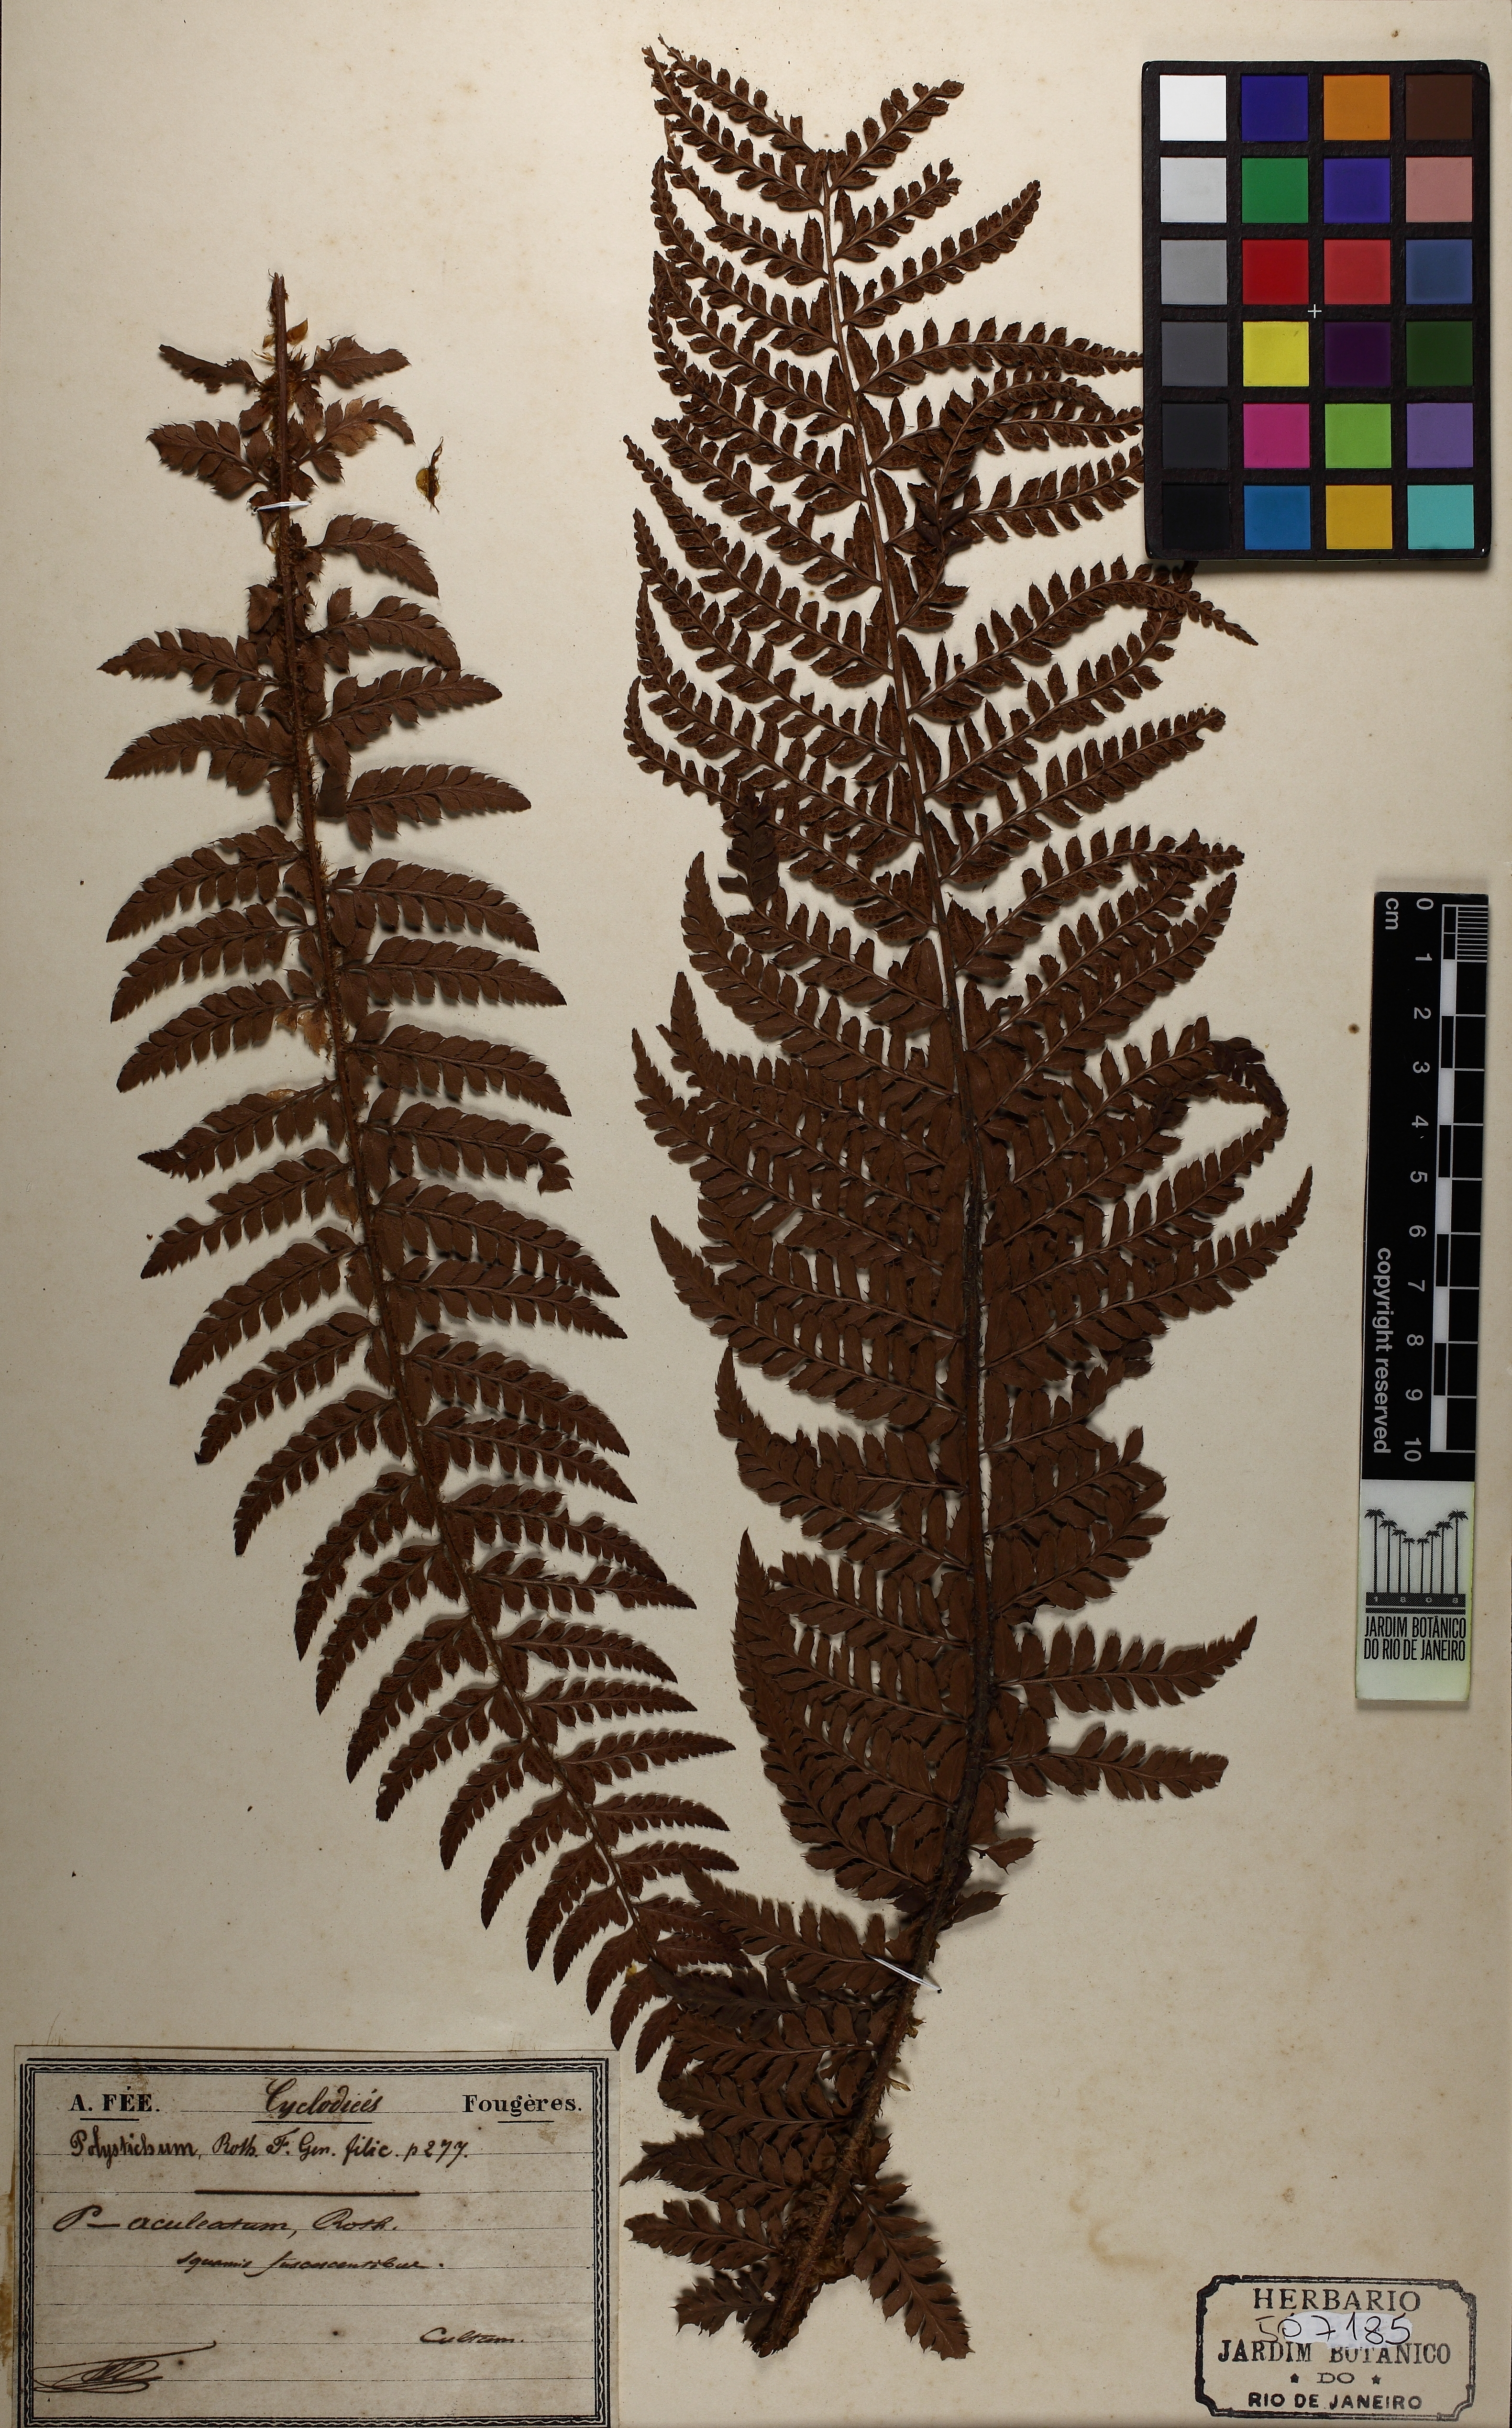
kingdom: Plantae
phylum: Tracheophyta
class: Polypodiopsida
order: Polypodiales
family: Dryopteridaceae
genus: Polystichum
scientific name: Polystichum aculeatum
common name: Hard shield-fern
